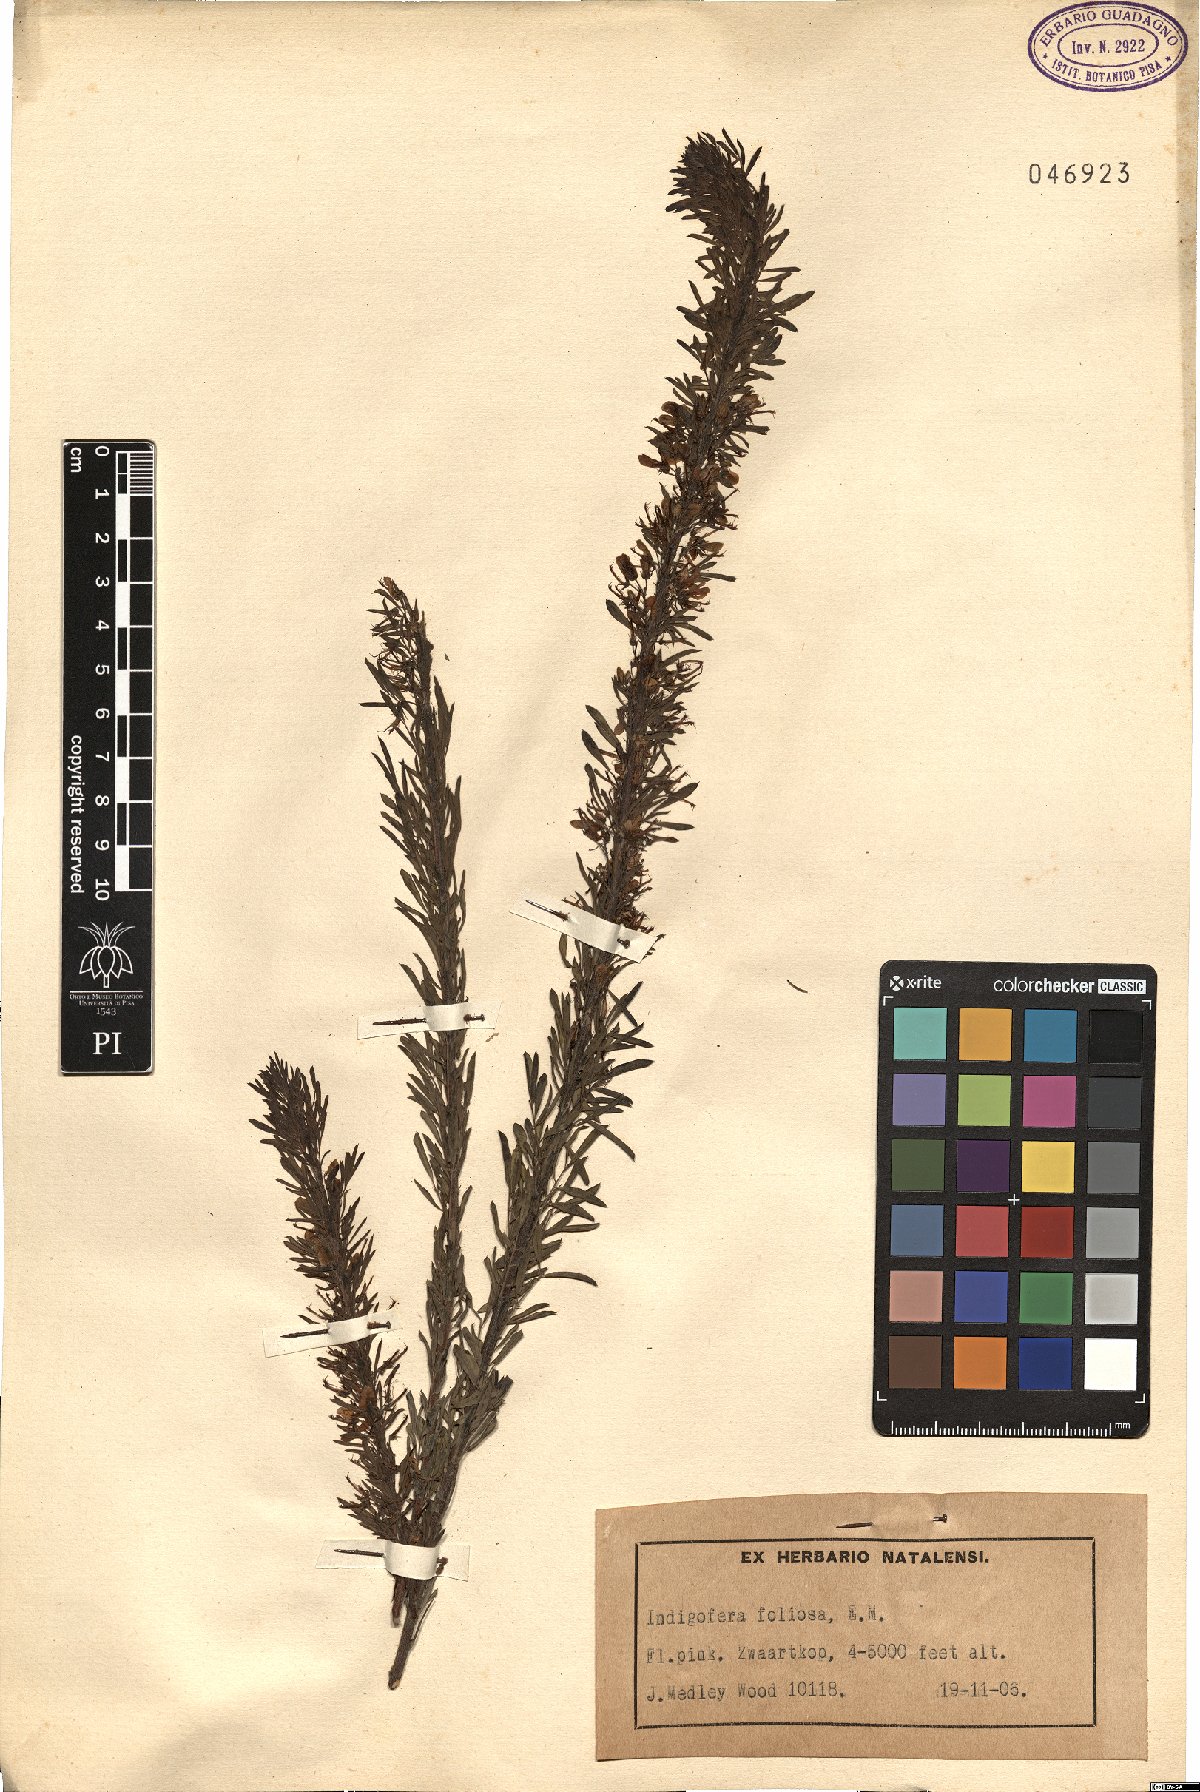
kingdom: Plantae
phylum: Tracheophyta
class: Magnoliopsida
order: Fabales
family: Fabaceae
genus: Indigofera
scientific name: Indigofera foliosa
